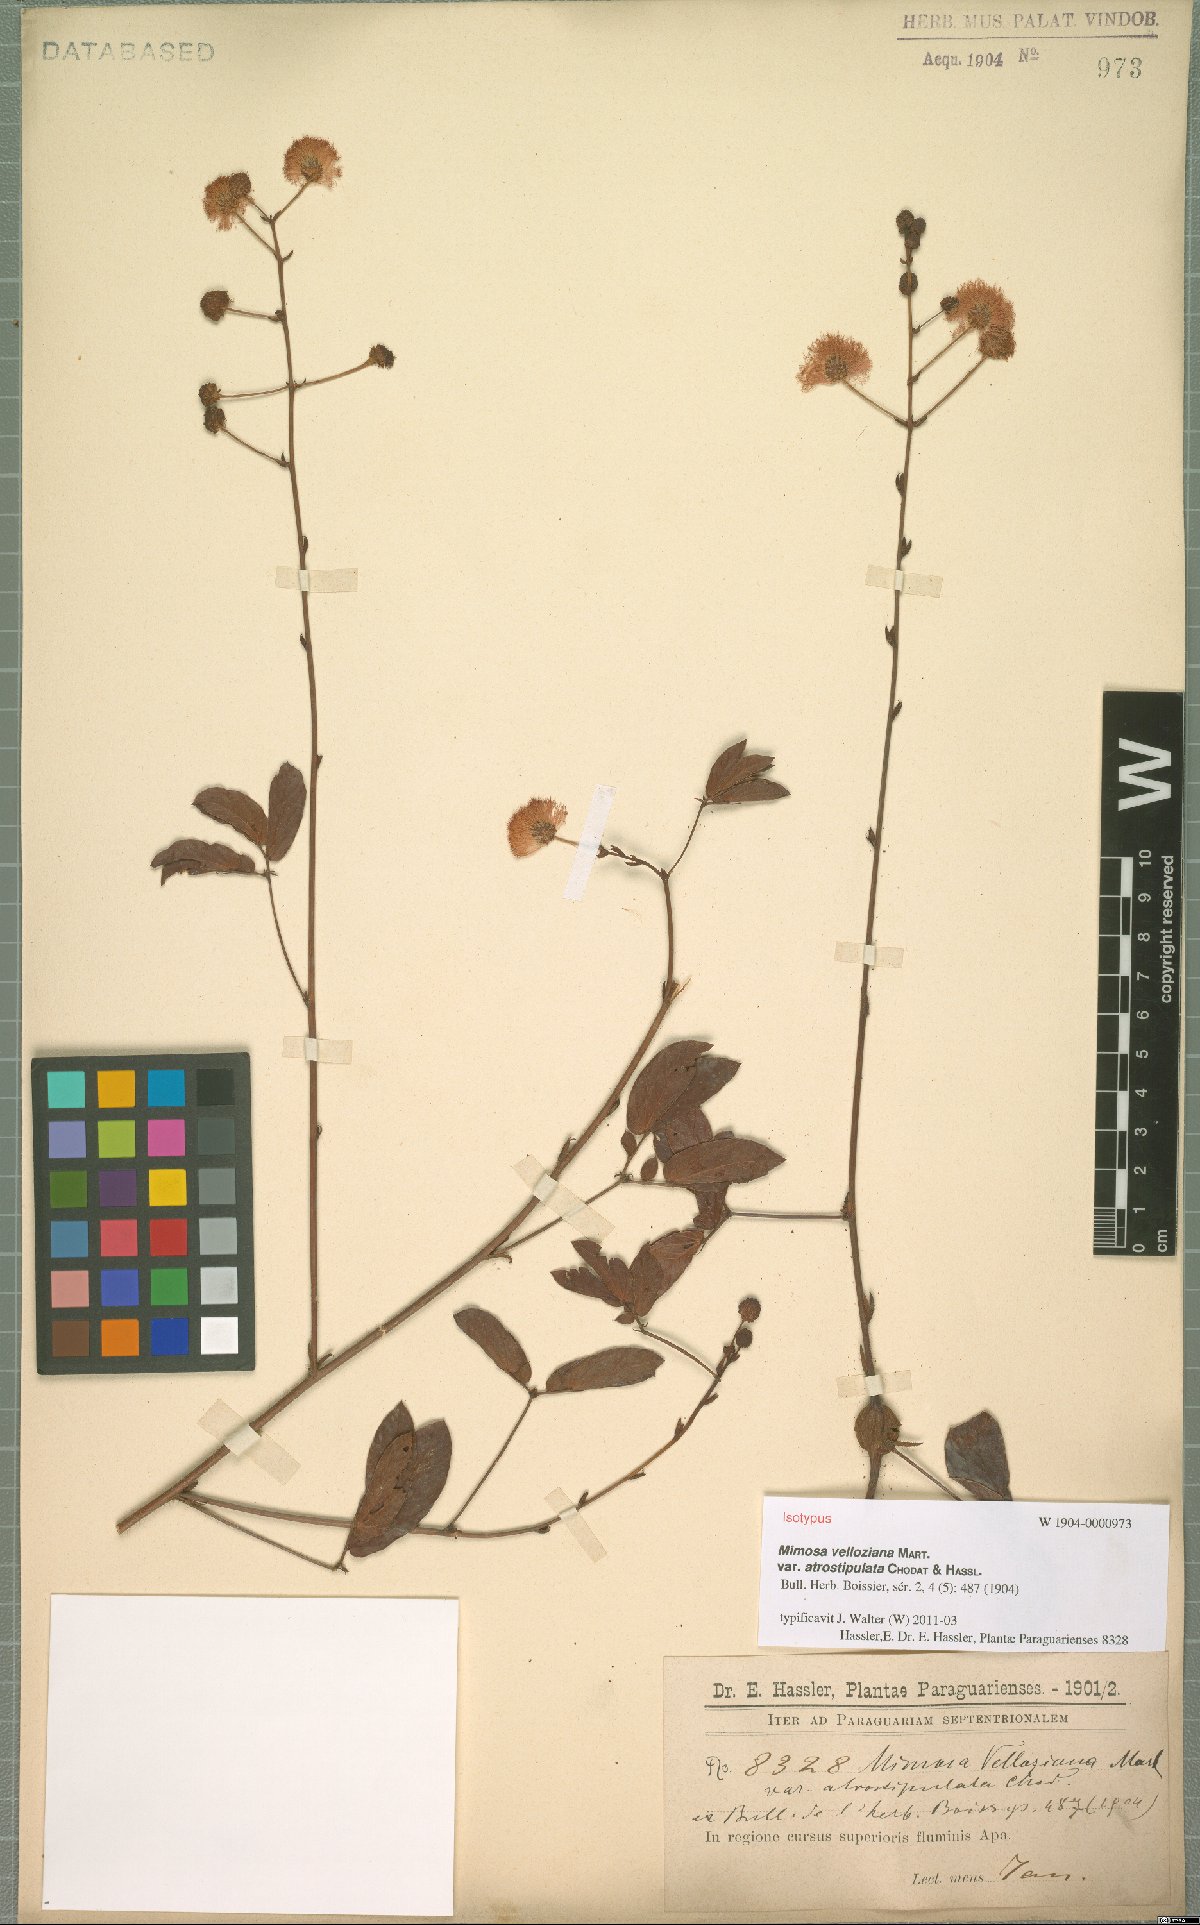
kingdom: Plantae
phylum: Tracheophyta
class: Magnoliopsida
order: Fabales
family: Fabaceae
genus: Mimosa
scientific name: Mimosa debilis
